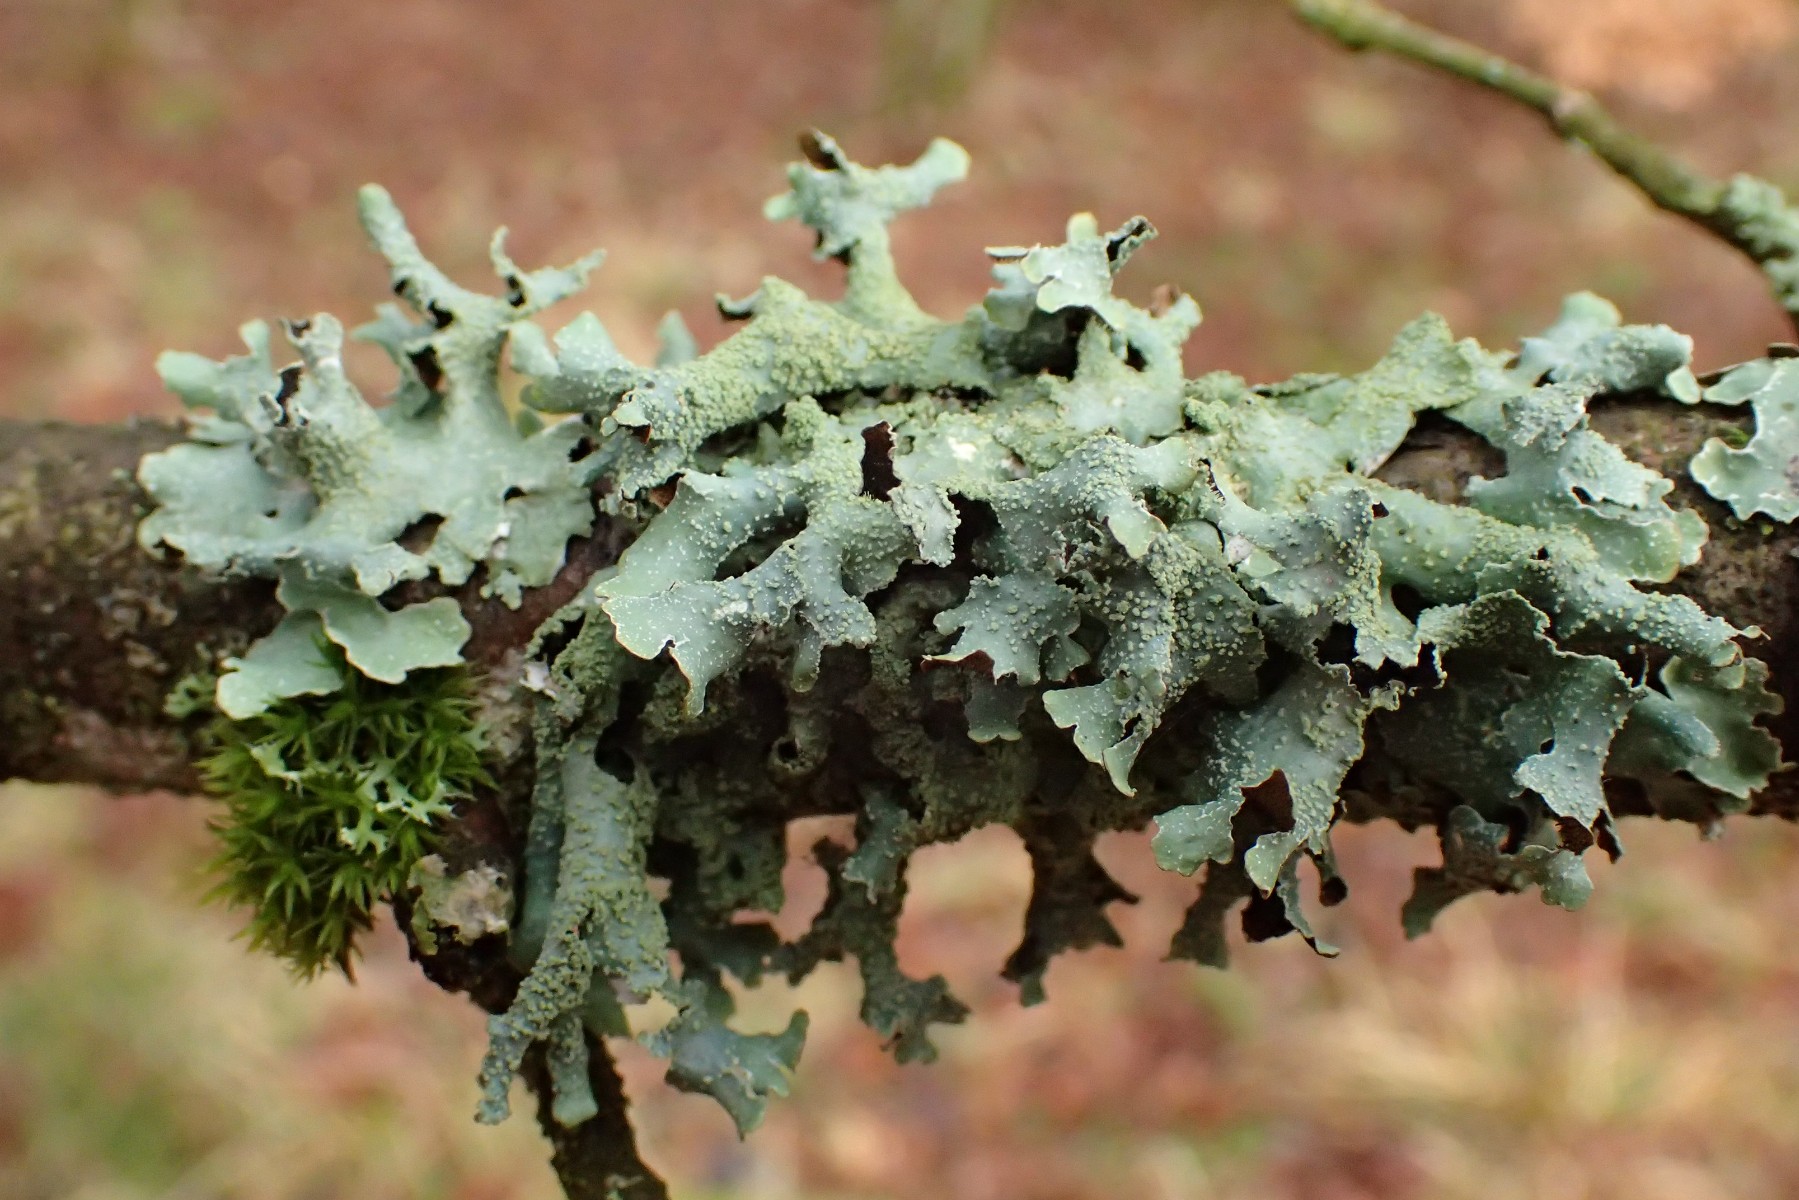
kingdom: Fungi
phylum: Ascomycota
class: Lecanoromycetes
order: Lecanorales
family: Parmeliaceae
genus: Parmelia
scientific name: Parmelia submontana
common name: langlobet skållav
